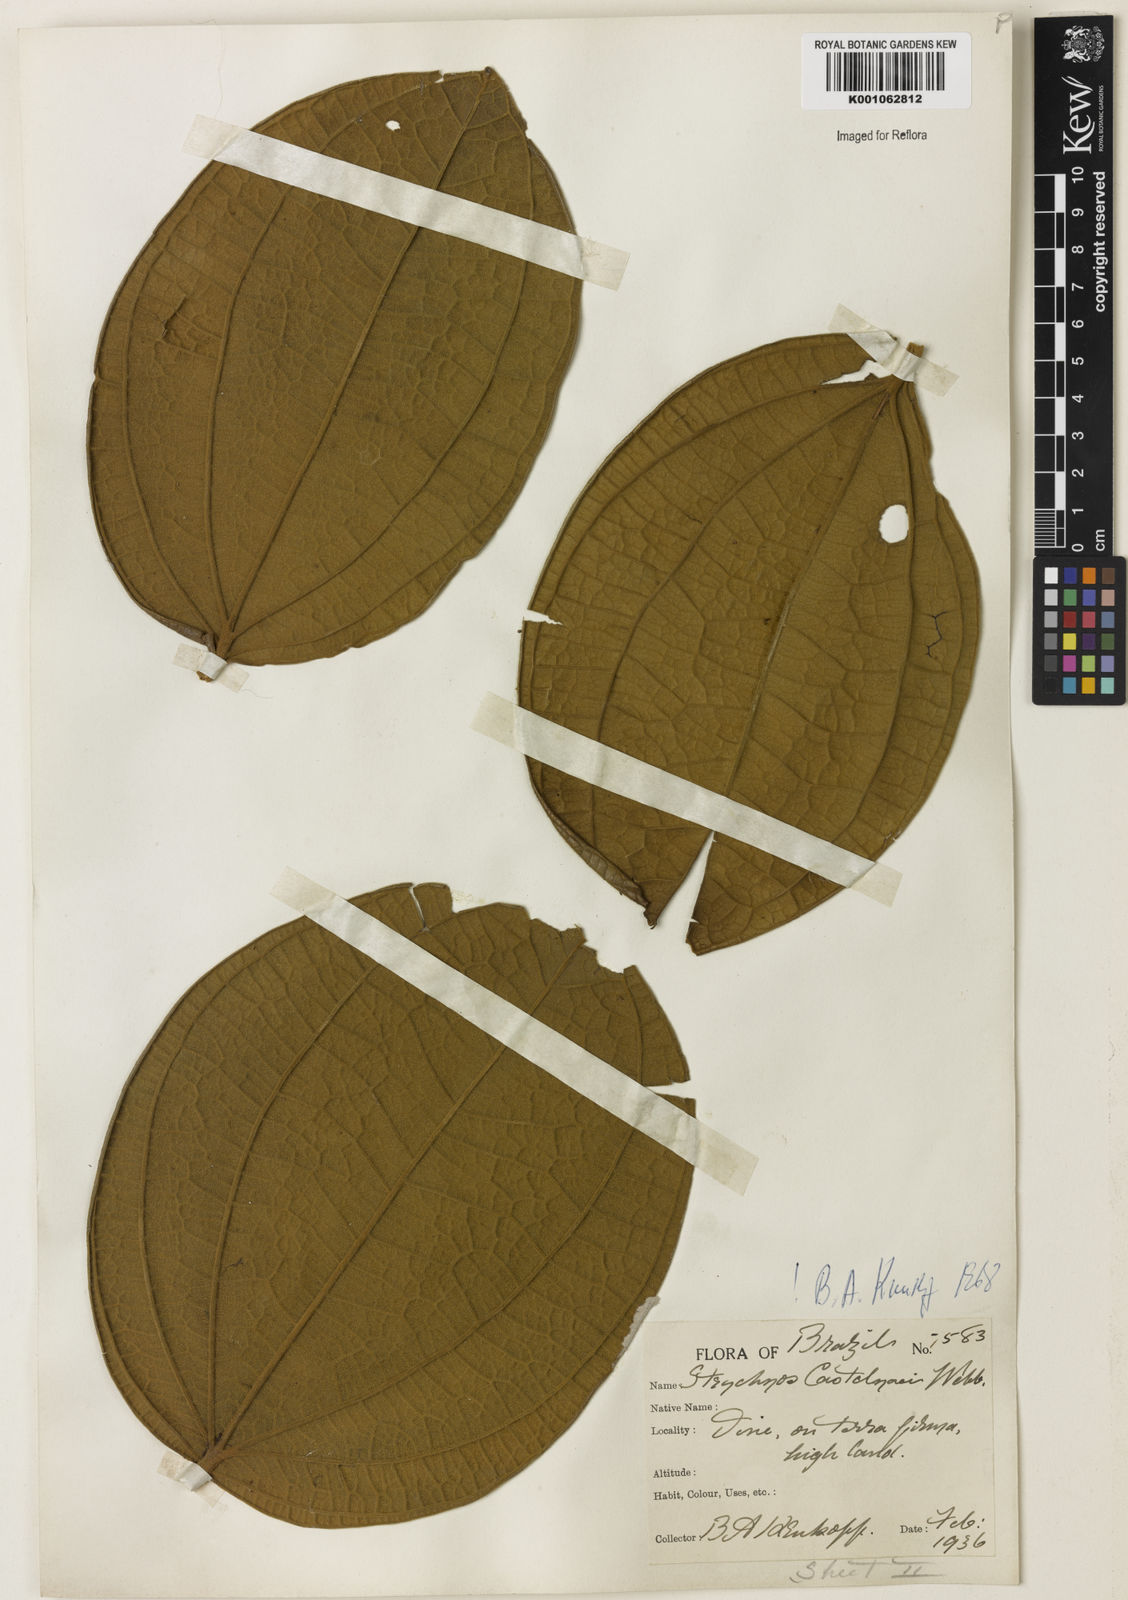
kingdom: Plantae
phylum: Tracheophyta
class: Magnoliopsida
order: Gentianales
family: Loganiaceae
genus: Strychnos
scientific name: Strychnos
